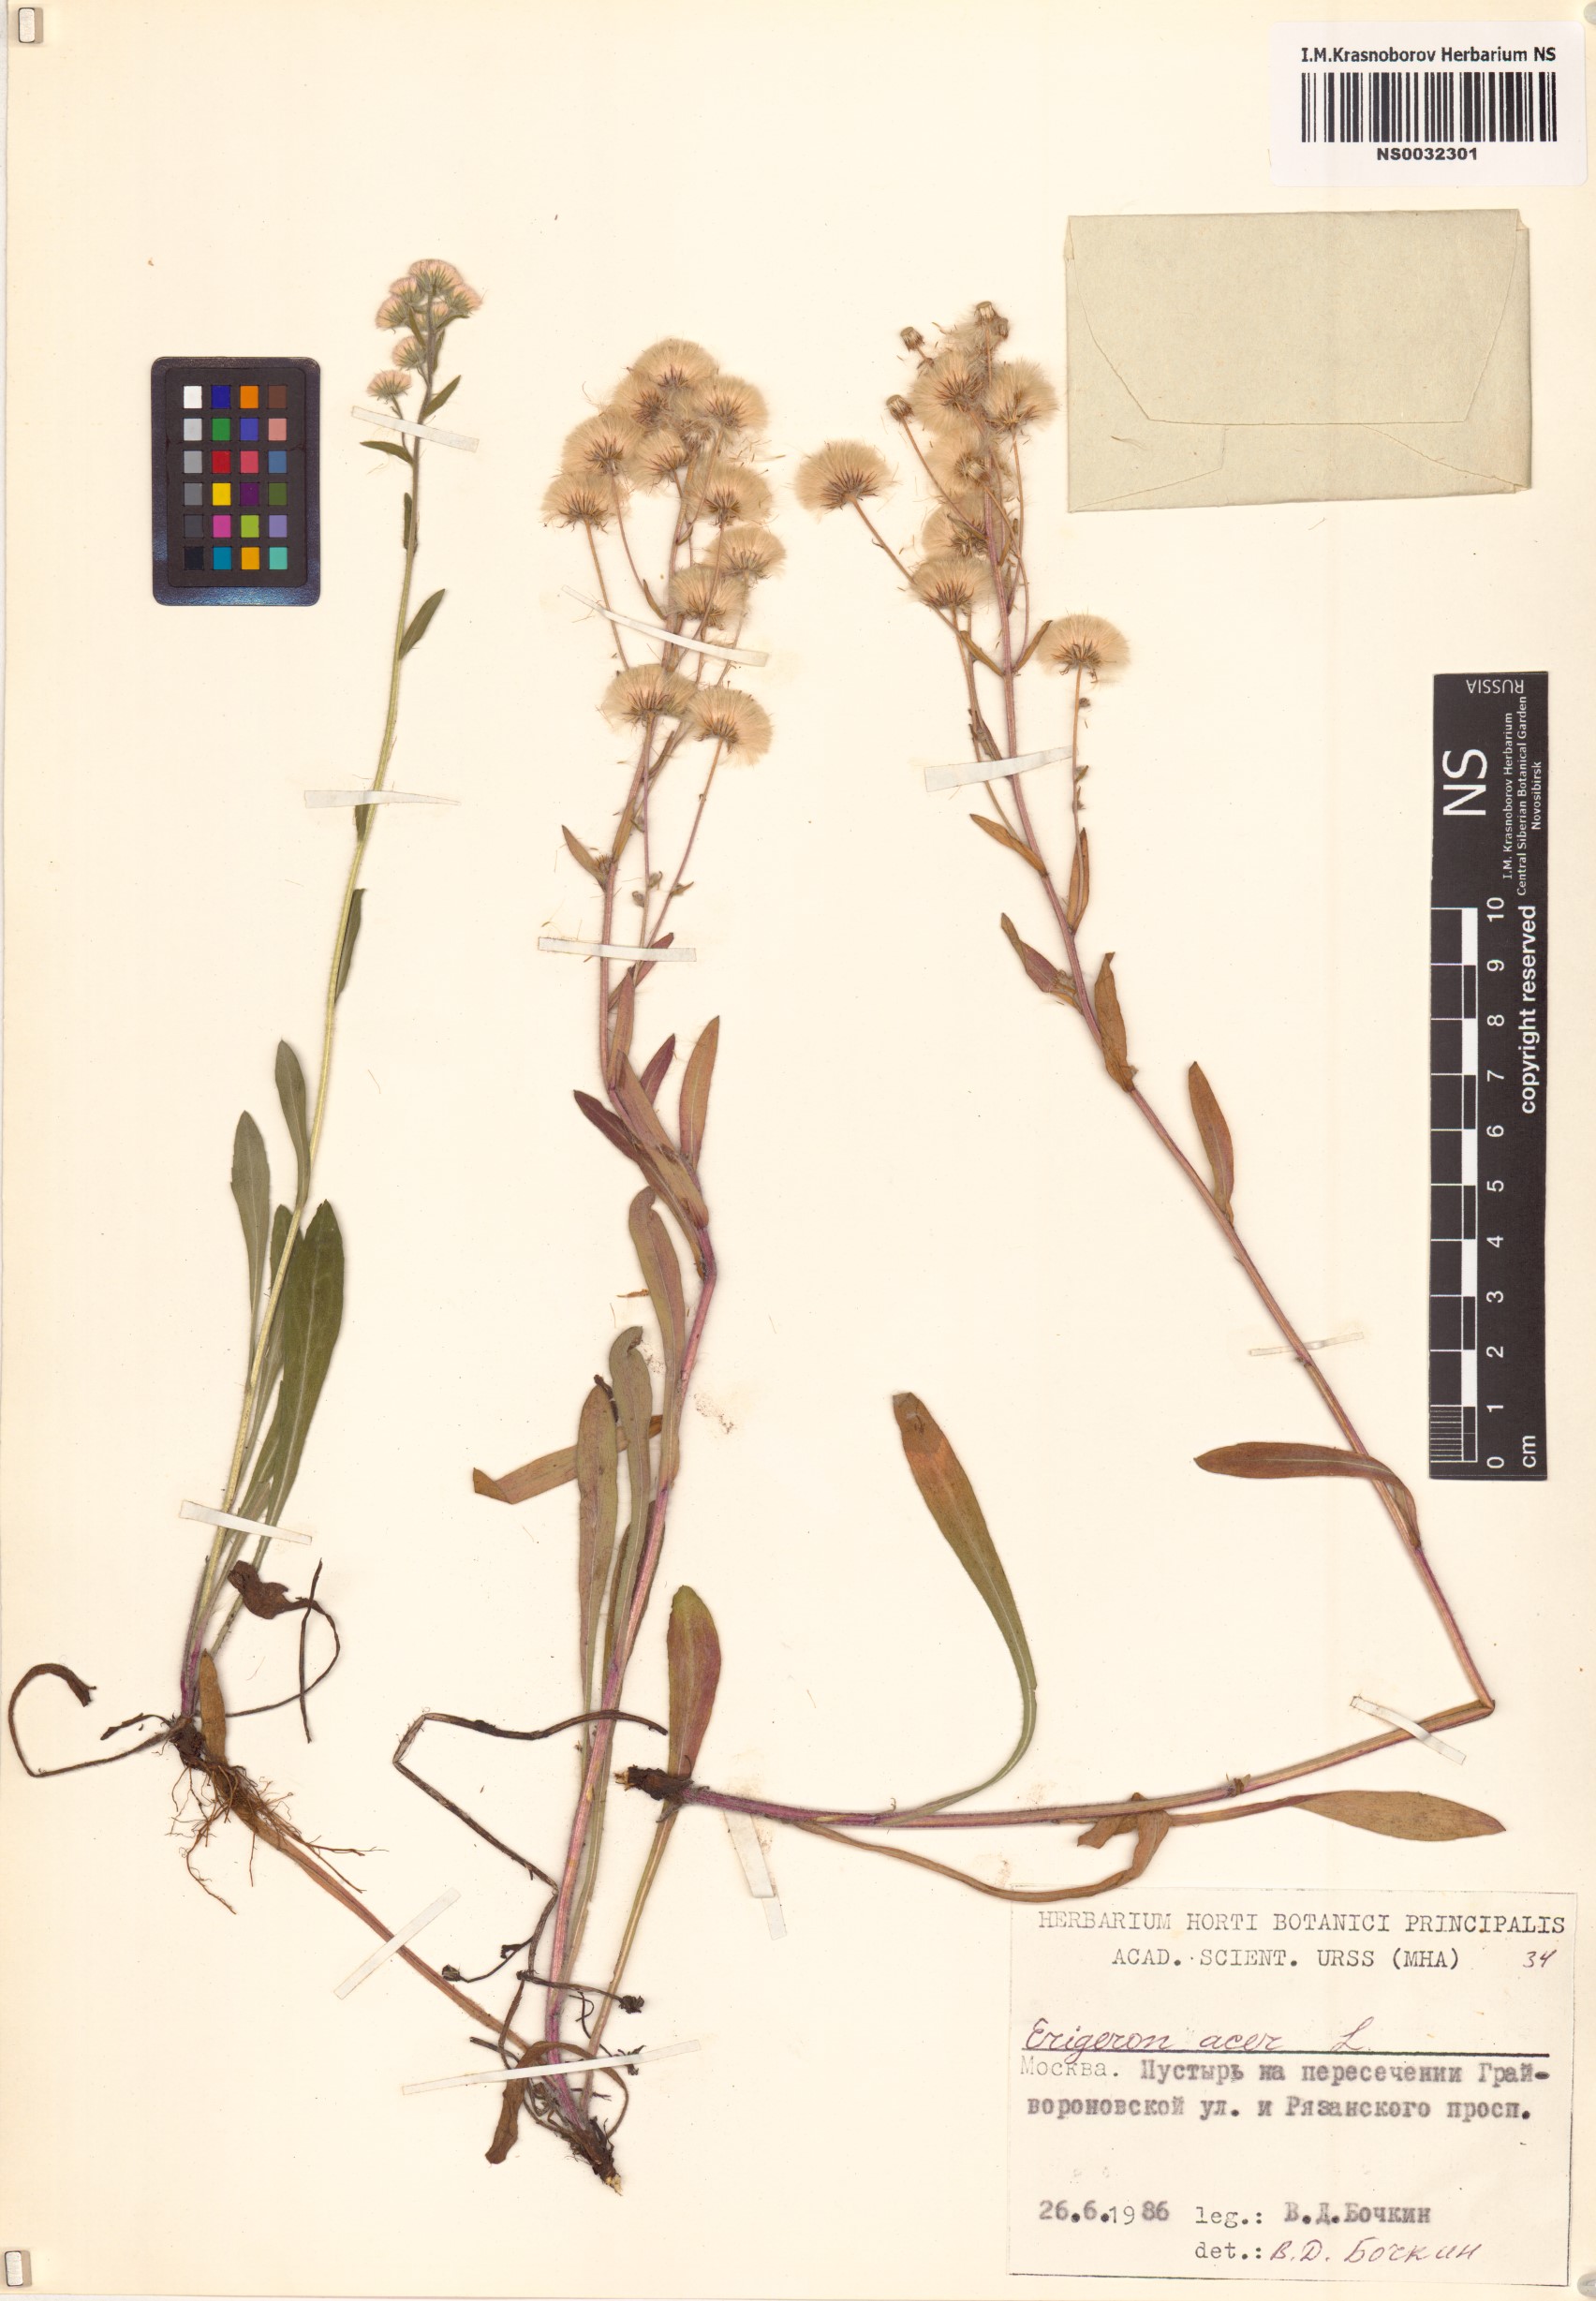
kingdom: Plantae
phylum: Tracheophyta
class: Magnoliopsida
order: Asterales
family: Asteraceae
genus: Erigeron
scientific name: Erigeron acris
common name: Blue fleabane
